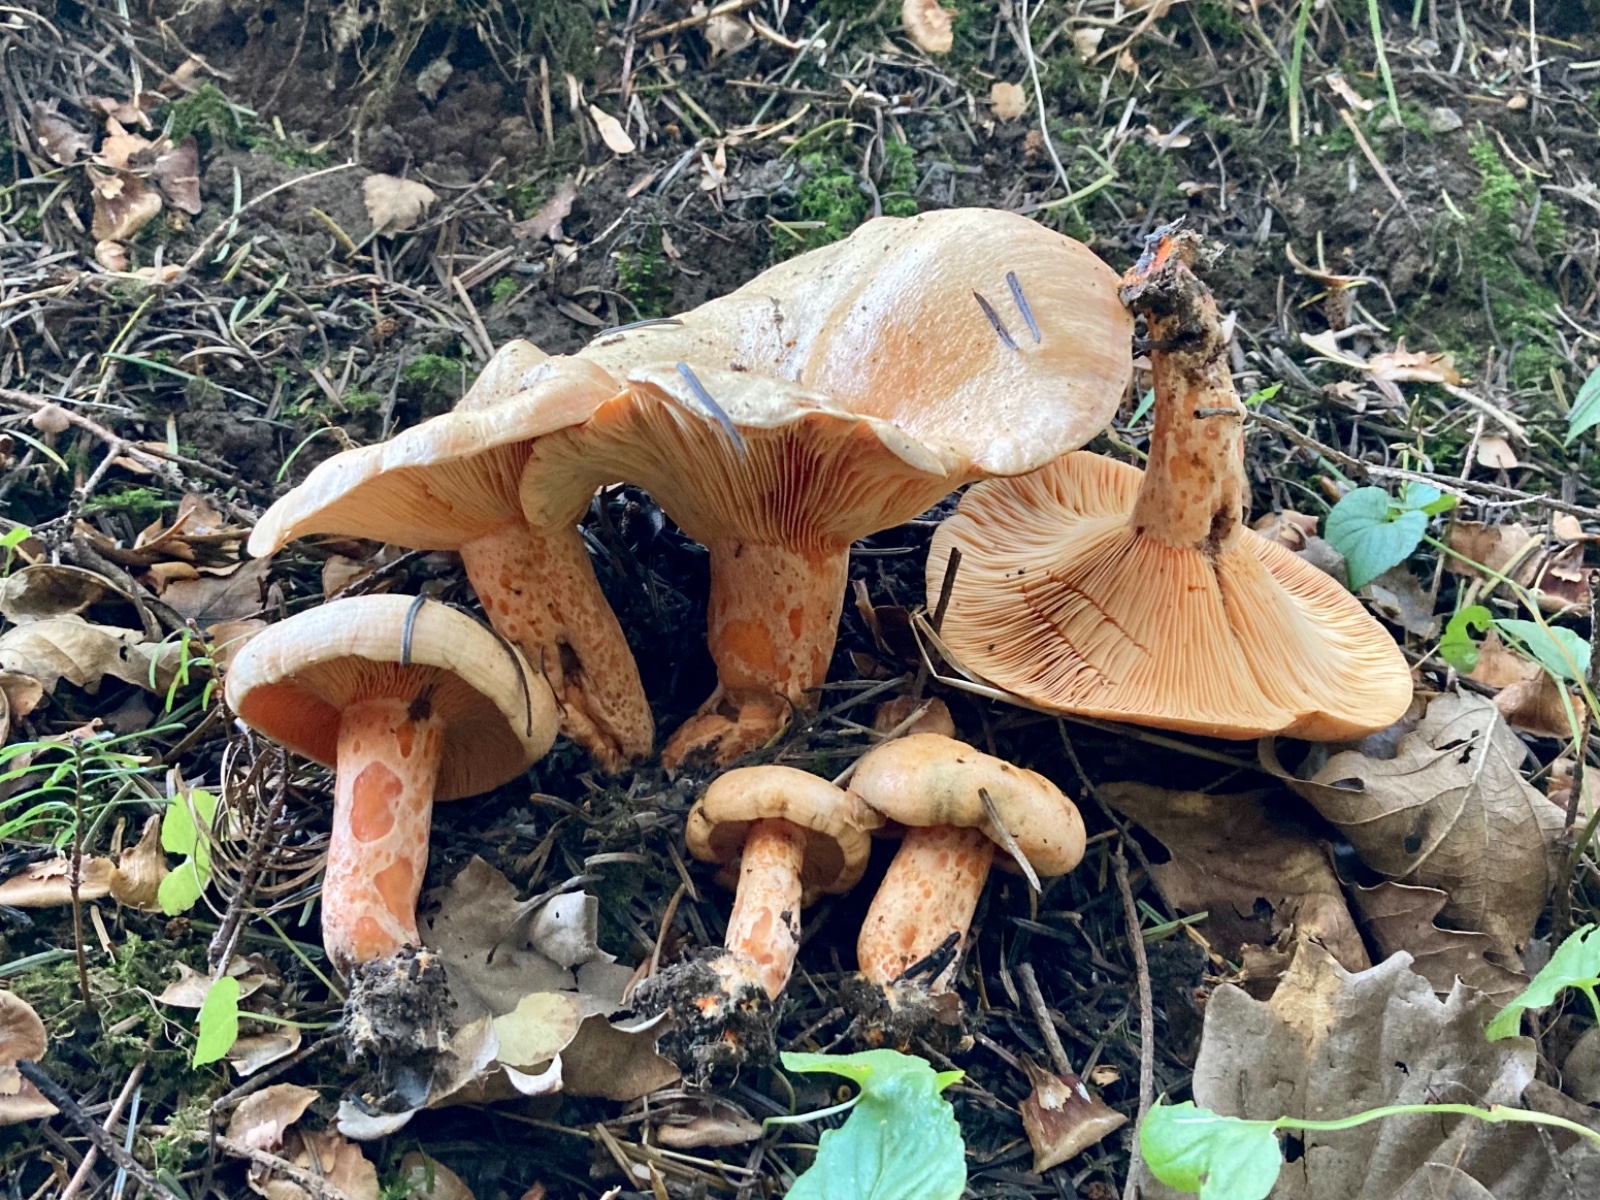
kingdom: Fungi
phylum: Basidiomycota
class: Agaricomycetes
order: Russulales
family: Russulaceae
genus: Lactarius
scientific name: Lactarius salmonicolor
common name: laksefarvet mælkehat
